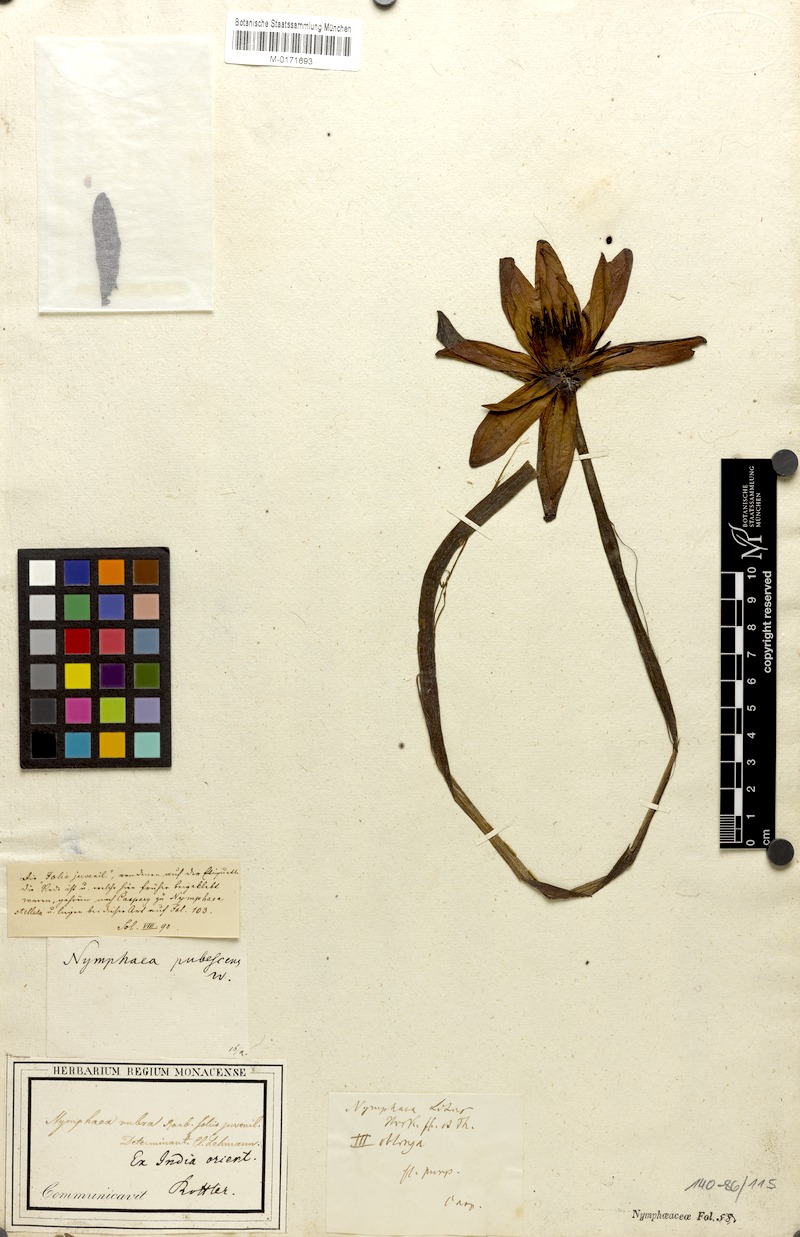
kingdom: Plantae
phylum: Tracheophyta
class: Magnoliopsida
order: Nymphaeales
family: Nymphaeaceae
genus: Nymphaea
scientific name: Nymphaea pubescens
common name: Hairy water lily
